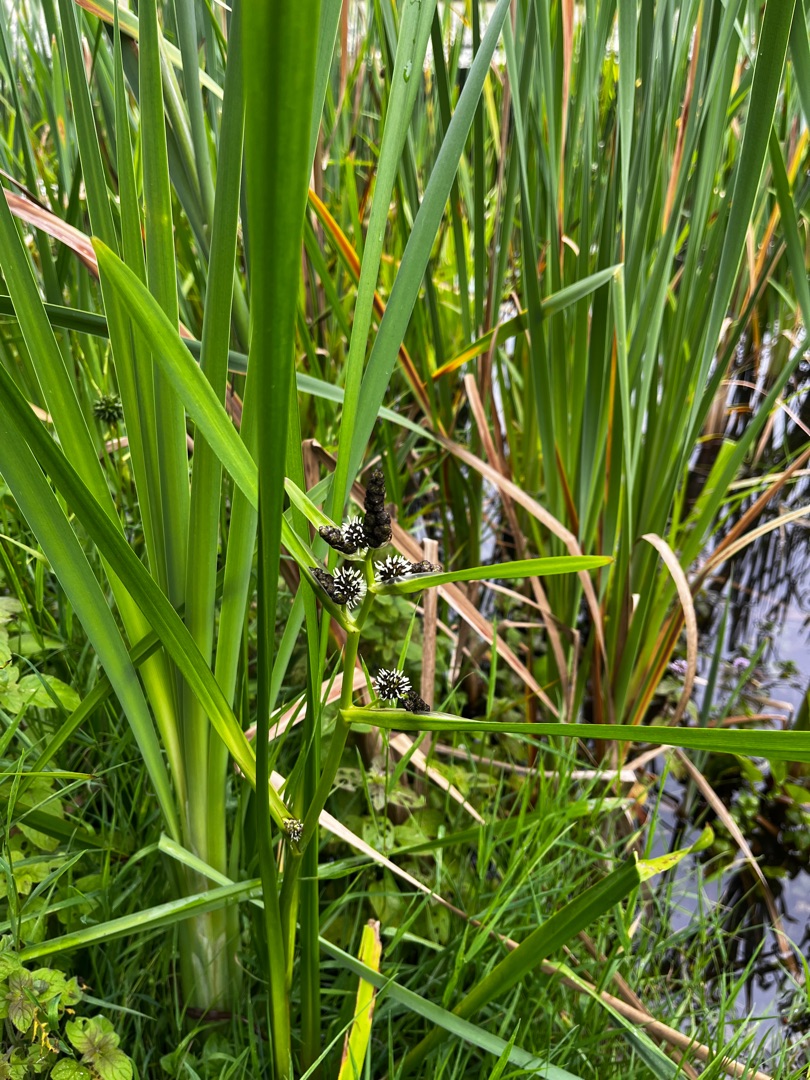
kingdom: Plantae
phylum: Tracheophyta
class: Liliopsida
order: Poales
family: Typhaceae
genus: Sparganium
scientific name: Sparganium erectum
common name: Grenet pindsvineknop
